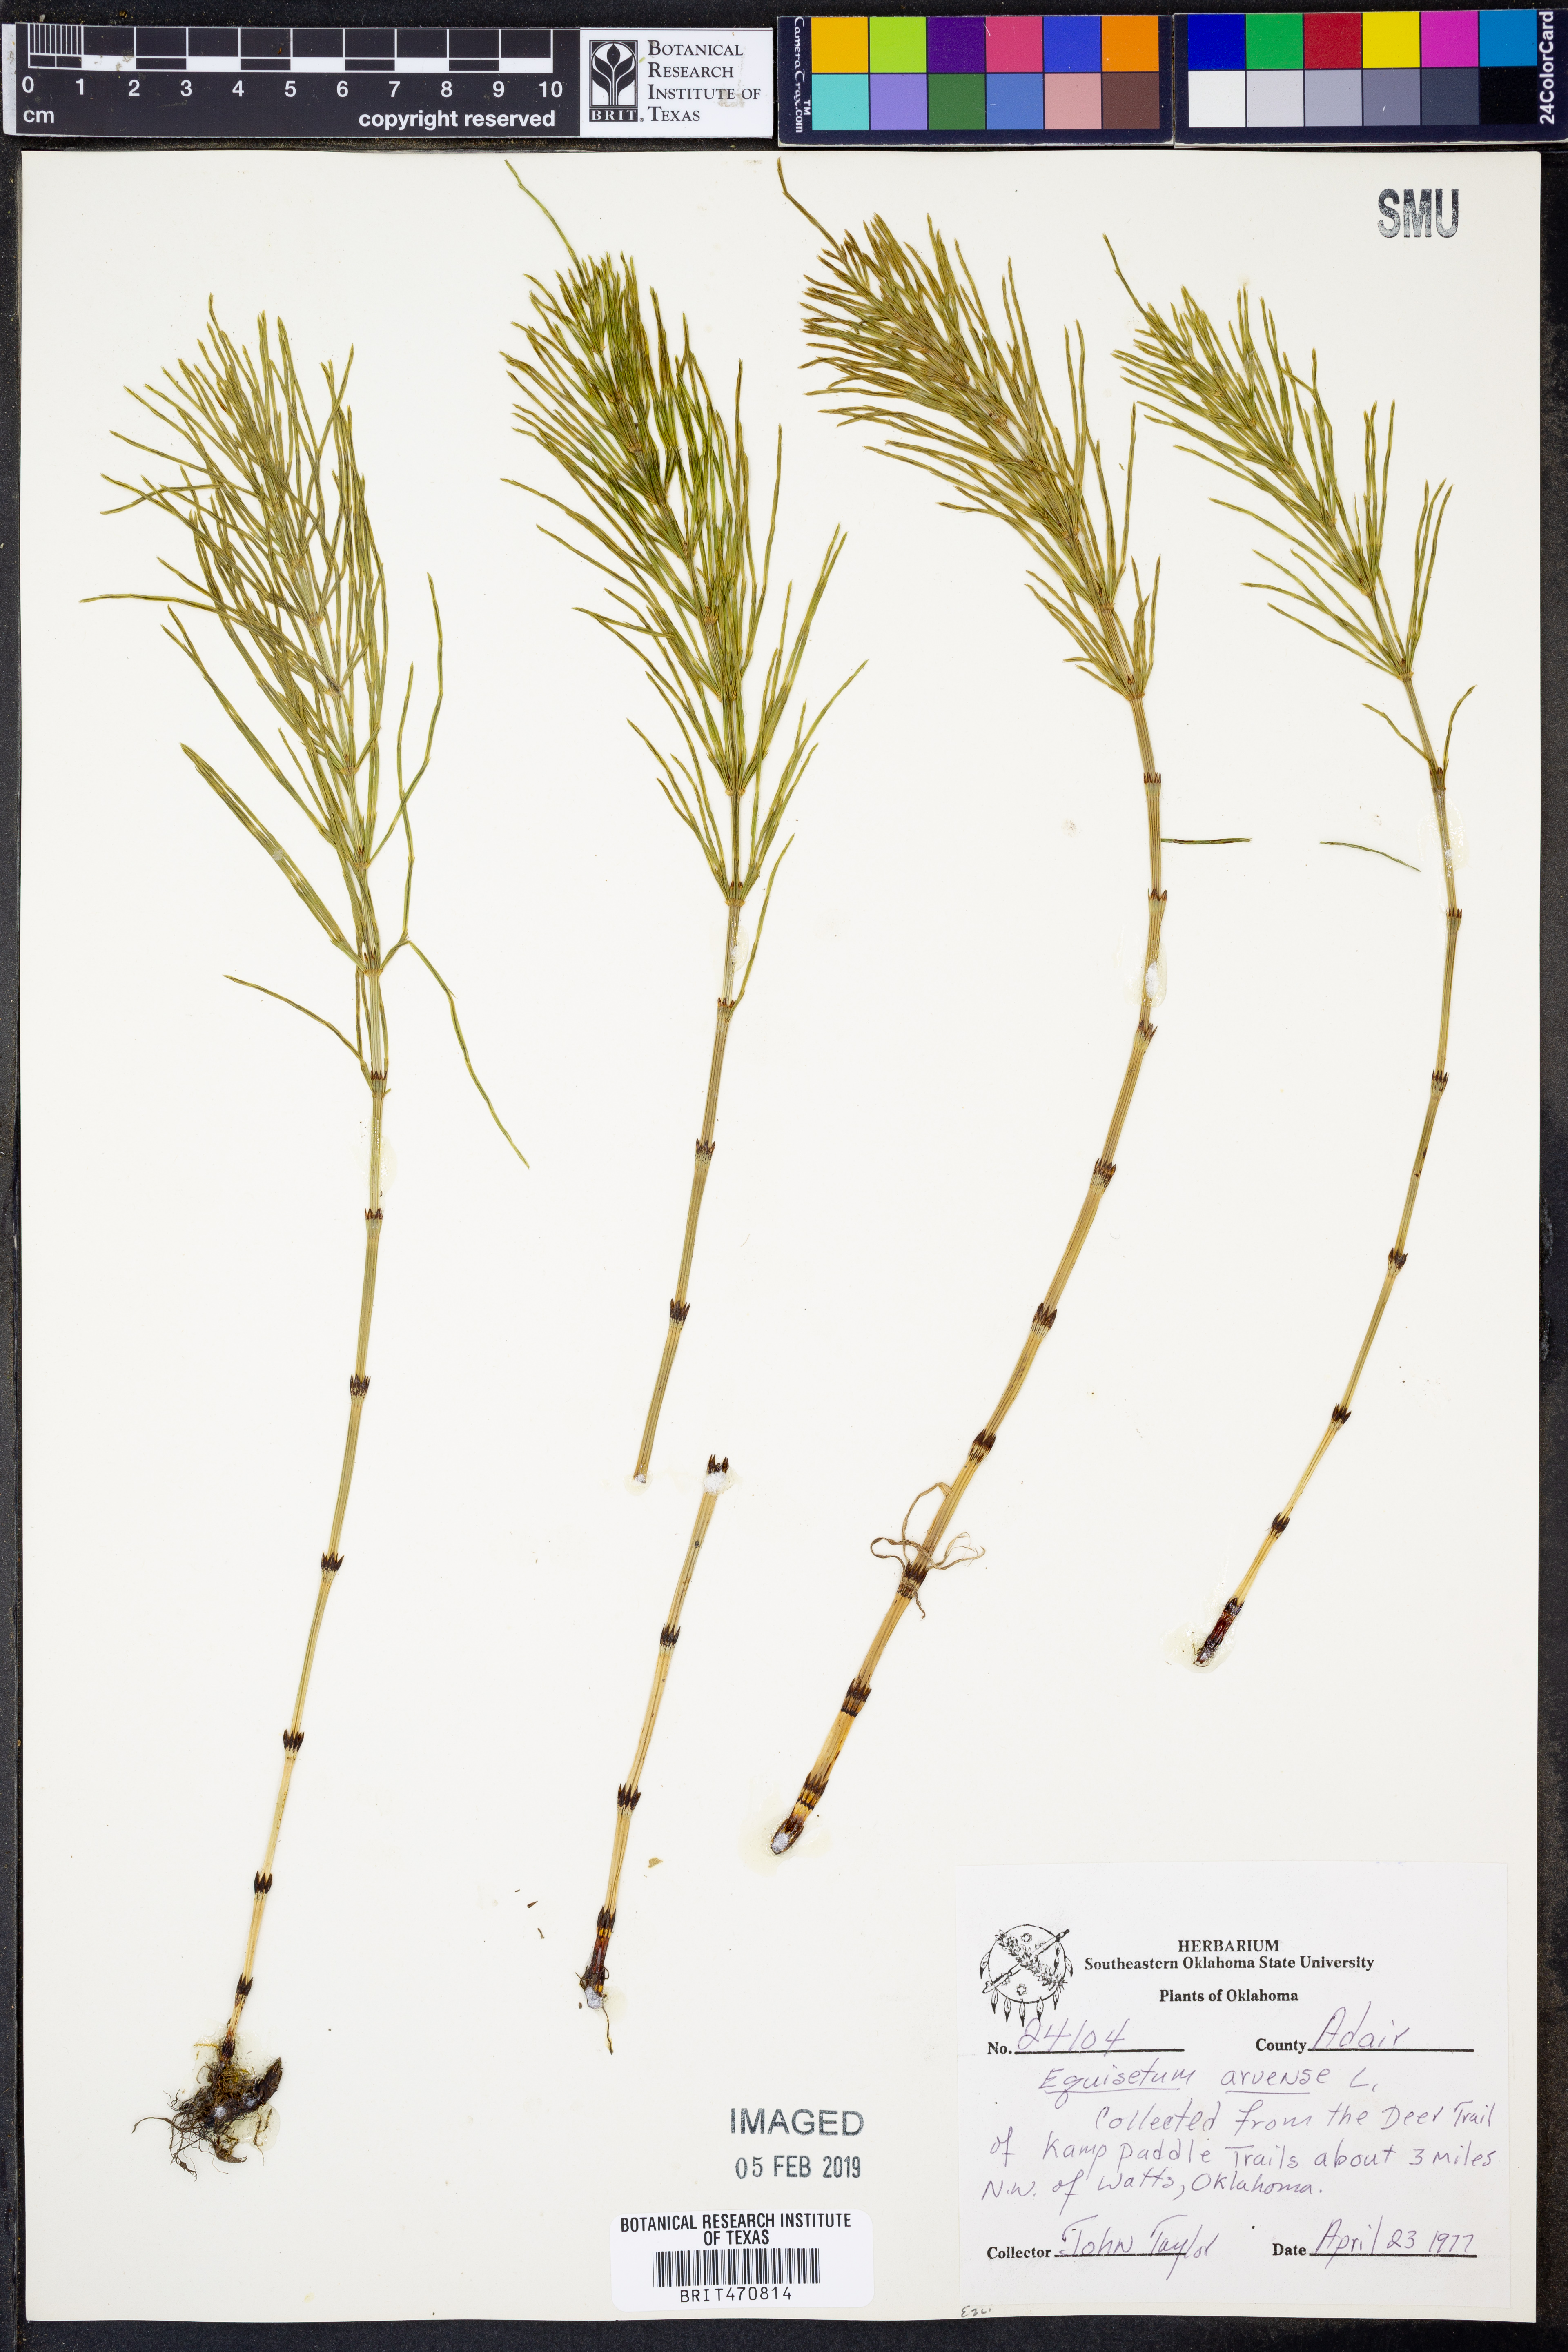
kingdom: Plantae
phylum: Tracheophyta
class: Polypodiopsida
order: Equisetales
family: Equisetaceae
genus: Equisetum
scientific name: Equisetum arvense
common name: Field horsetail
